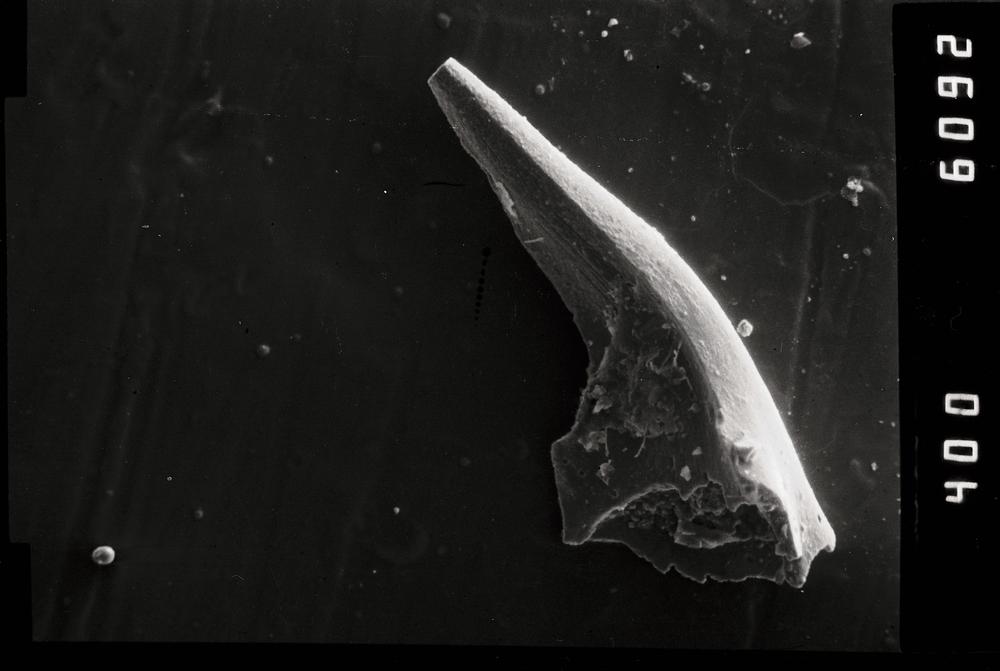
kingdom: Animalia
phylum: Chordata
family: Balognathidae
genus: Baltoniodus
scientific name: Baltoniodus
